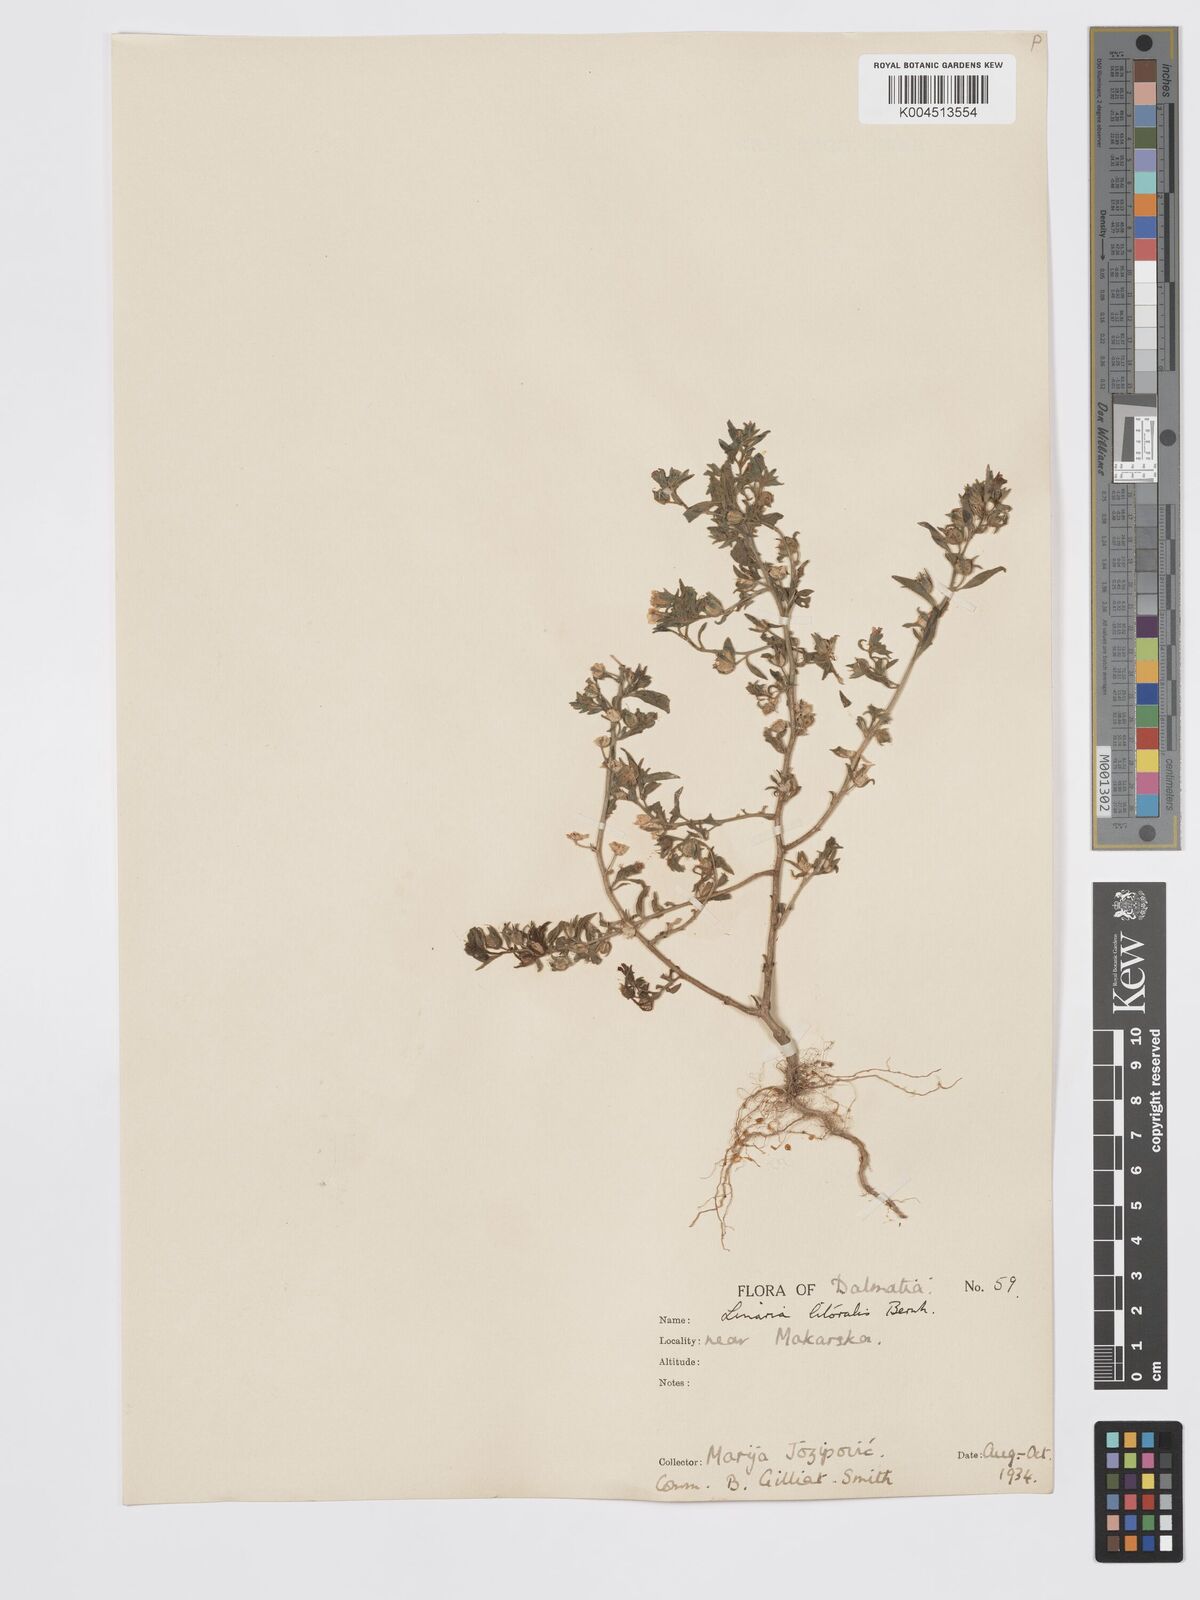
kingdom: Plantae
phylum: Tracheophyta
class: Magnoliopsida
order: Lamiales
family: Plantaginaceae
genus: Chaenorhinum
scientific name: Chaenorhinum minus
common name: Dwarf snapdragon
